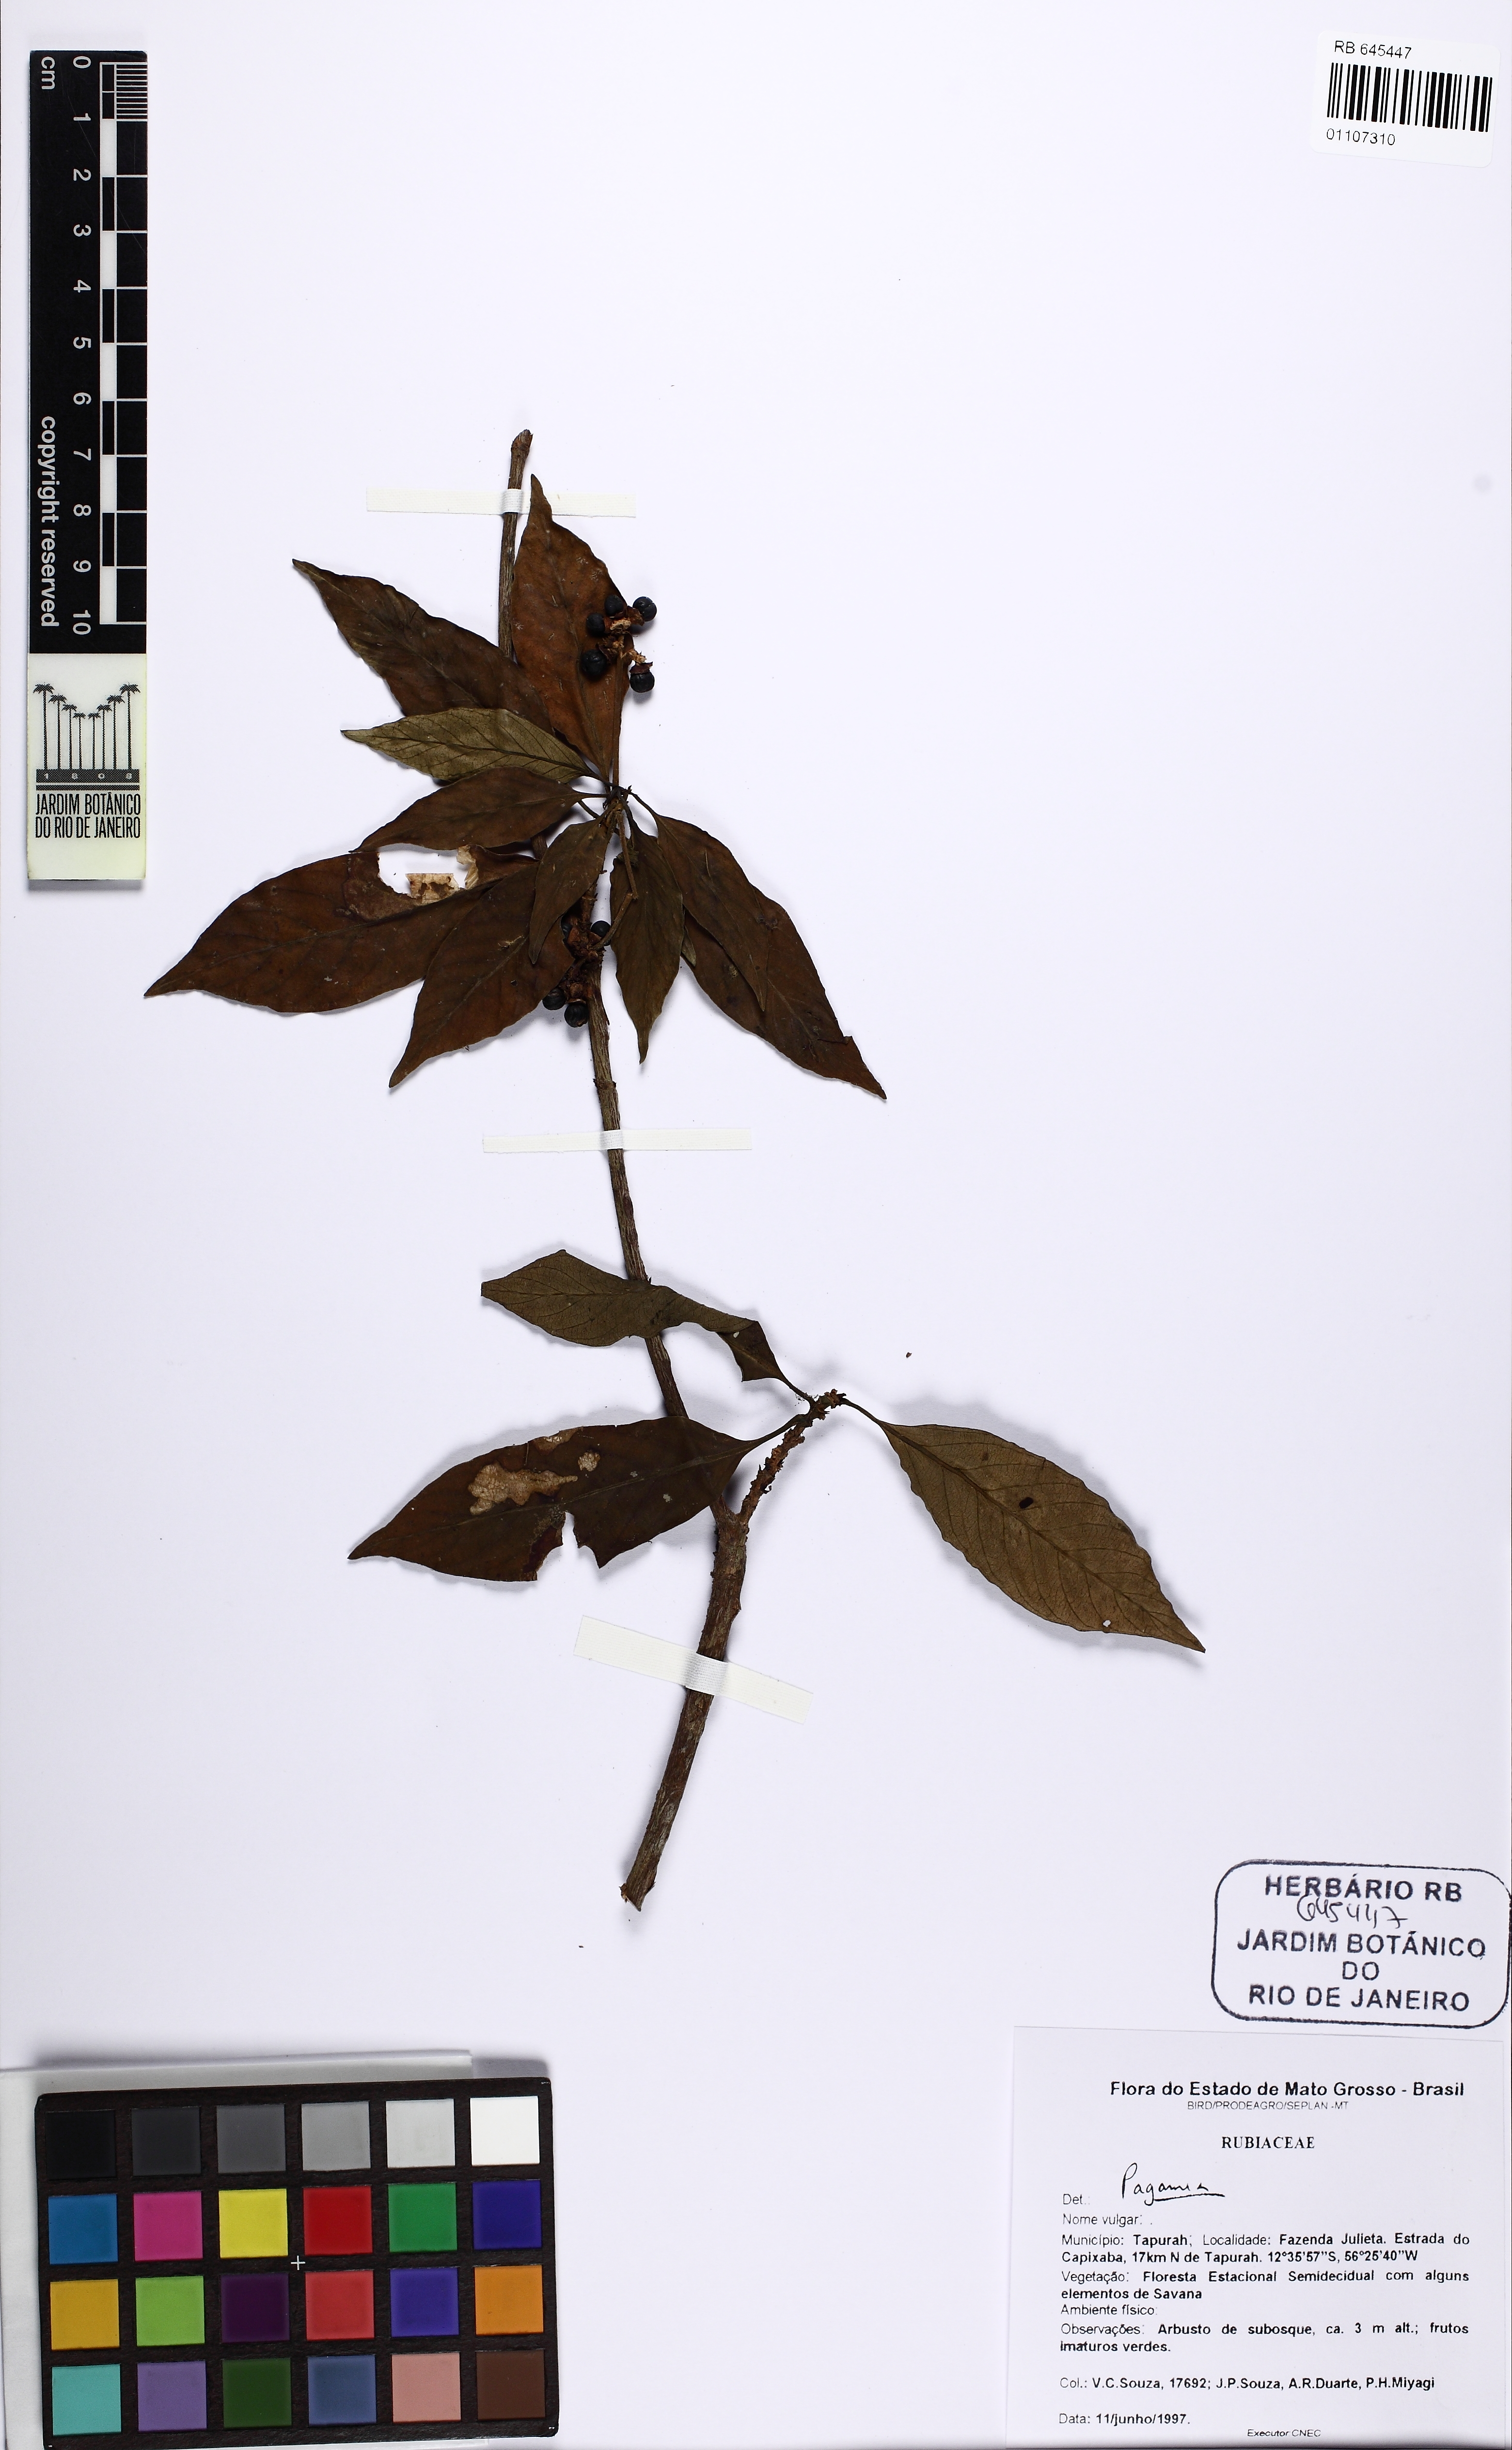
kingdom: Plantae
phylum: Tracheophyta
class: Magnoliopsida
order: Gentianales
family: Rubiaceae
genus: Pagamea
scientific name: Pagamea
